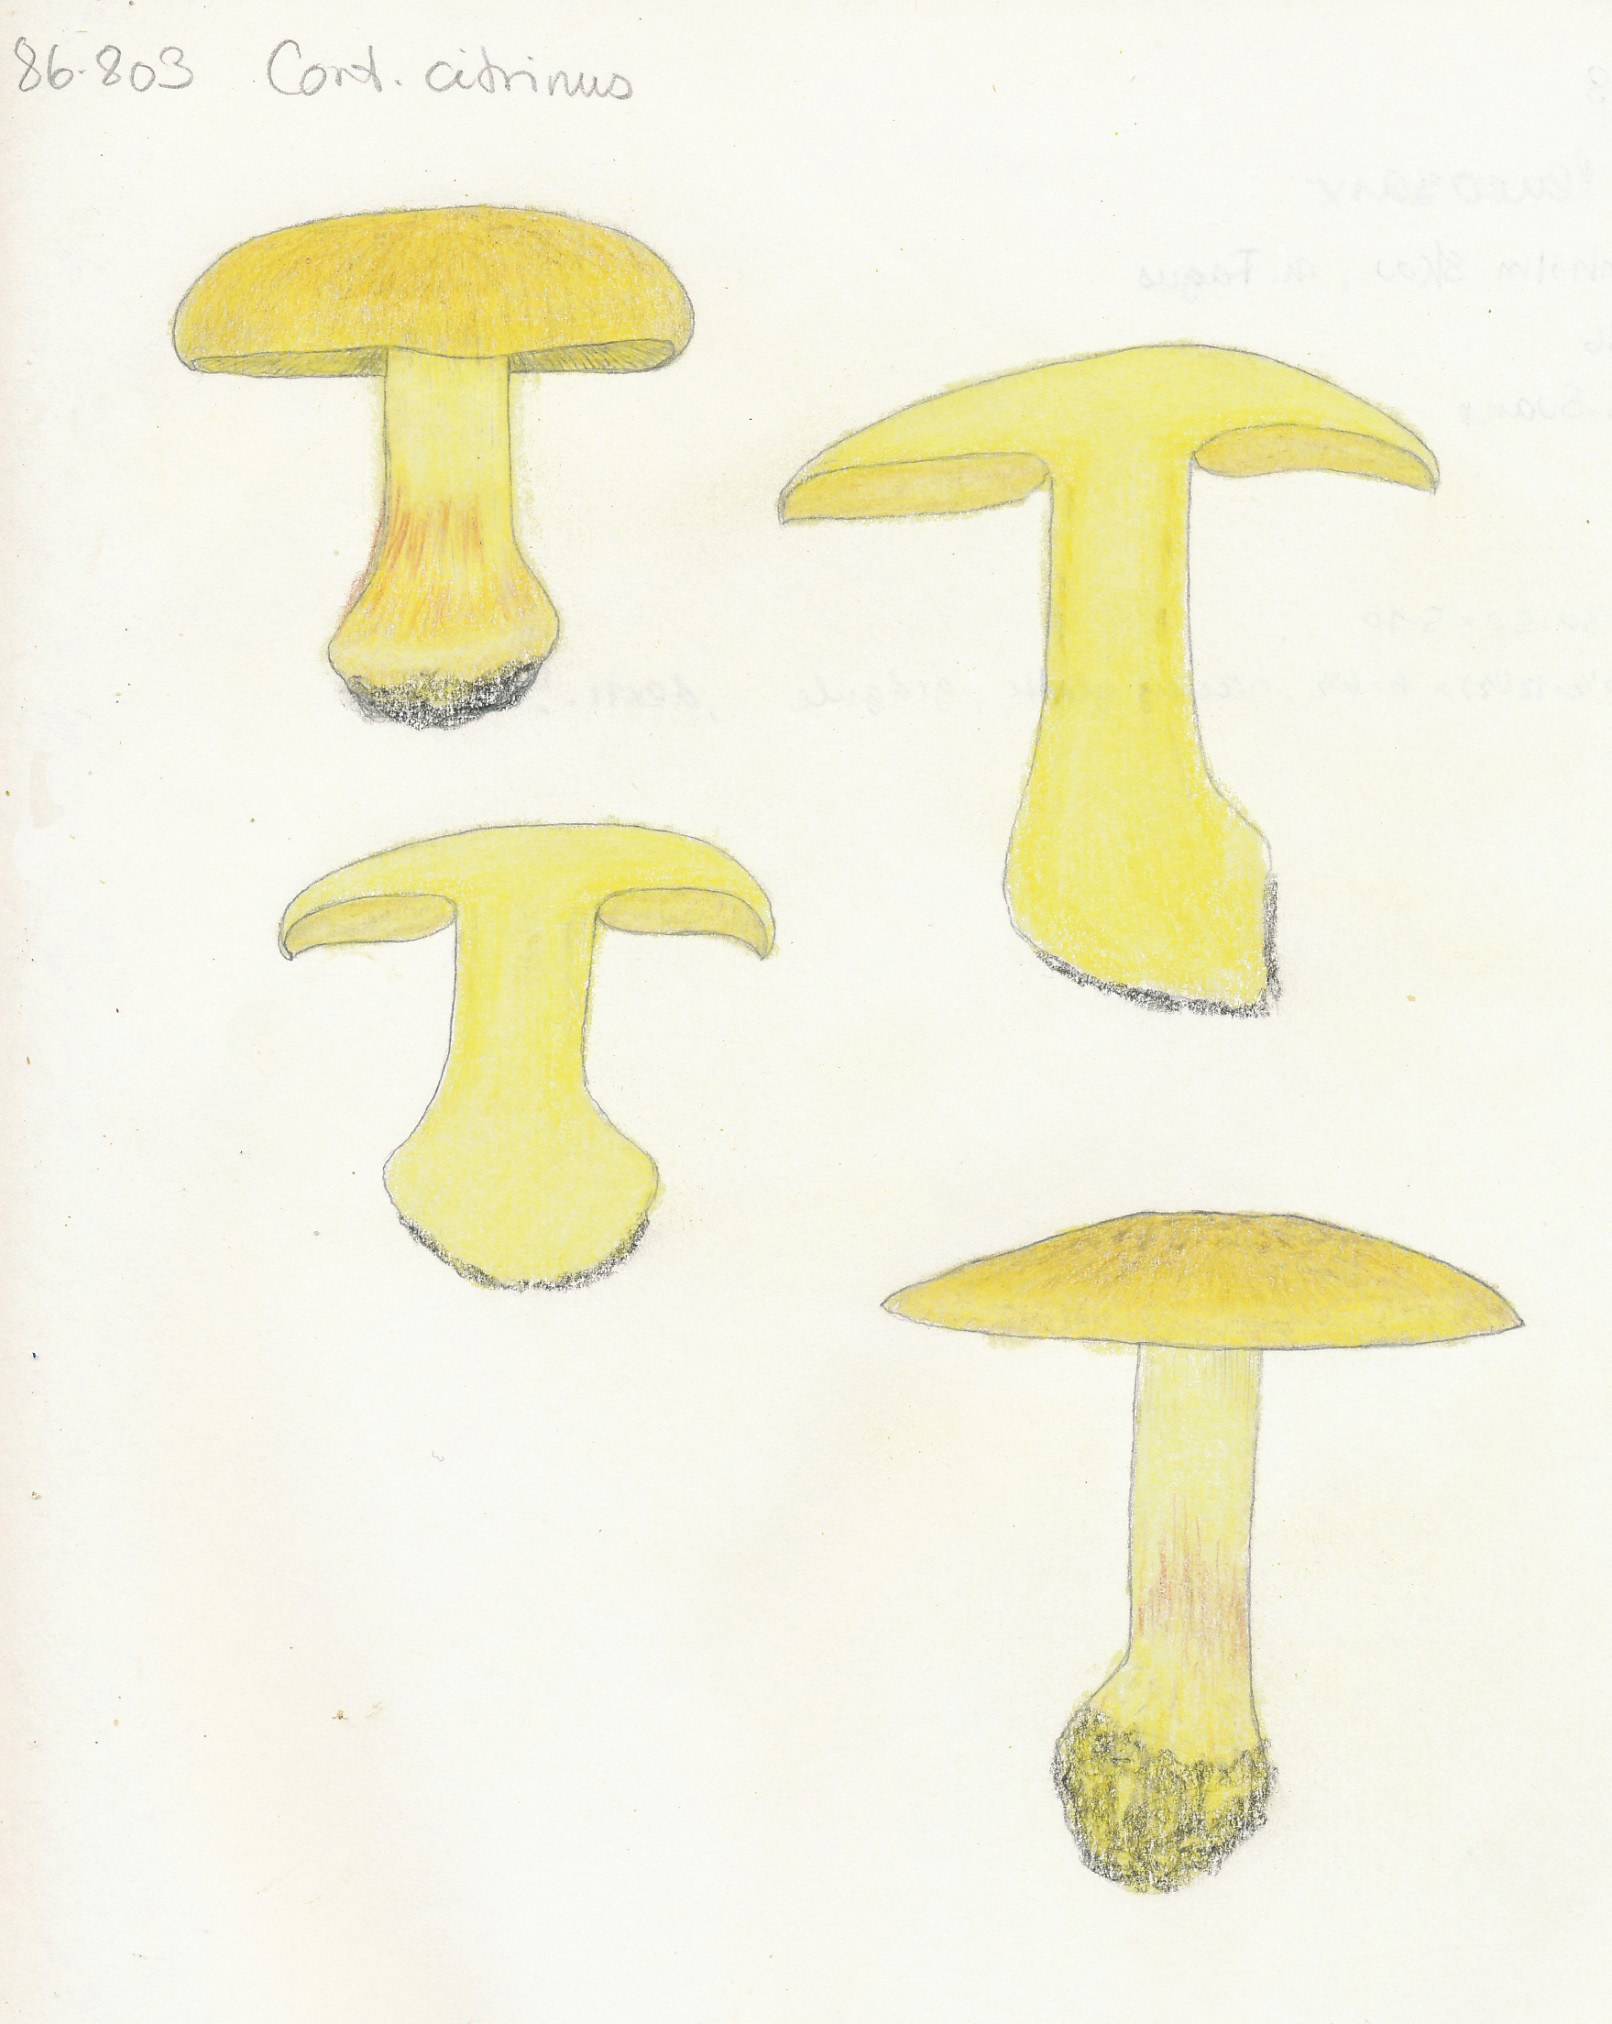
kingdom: Fungi
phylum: Basidiomycota
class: Agaricomycetes
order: Agaricales
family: Cortinariaceae
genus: Calonarius
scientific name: Calonarius citrinus
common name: citrongul slørhat
